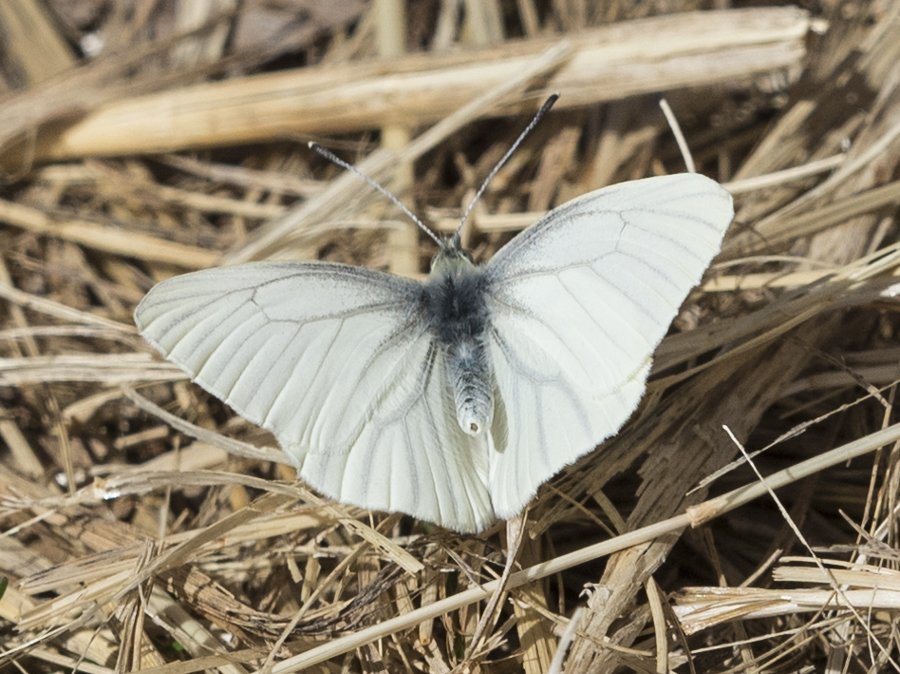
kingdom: Animalia
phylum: Arthropoda
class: Insecta
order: Lepidoptera
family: Pieridae
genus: Pieris
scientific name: Pieris oleracea
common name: Mustard White
